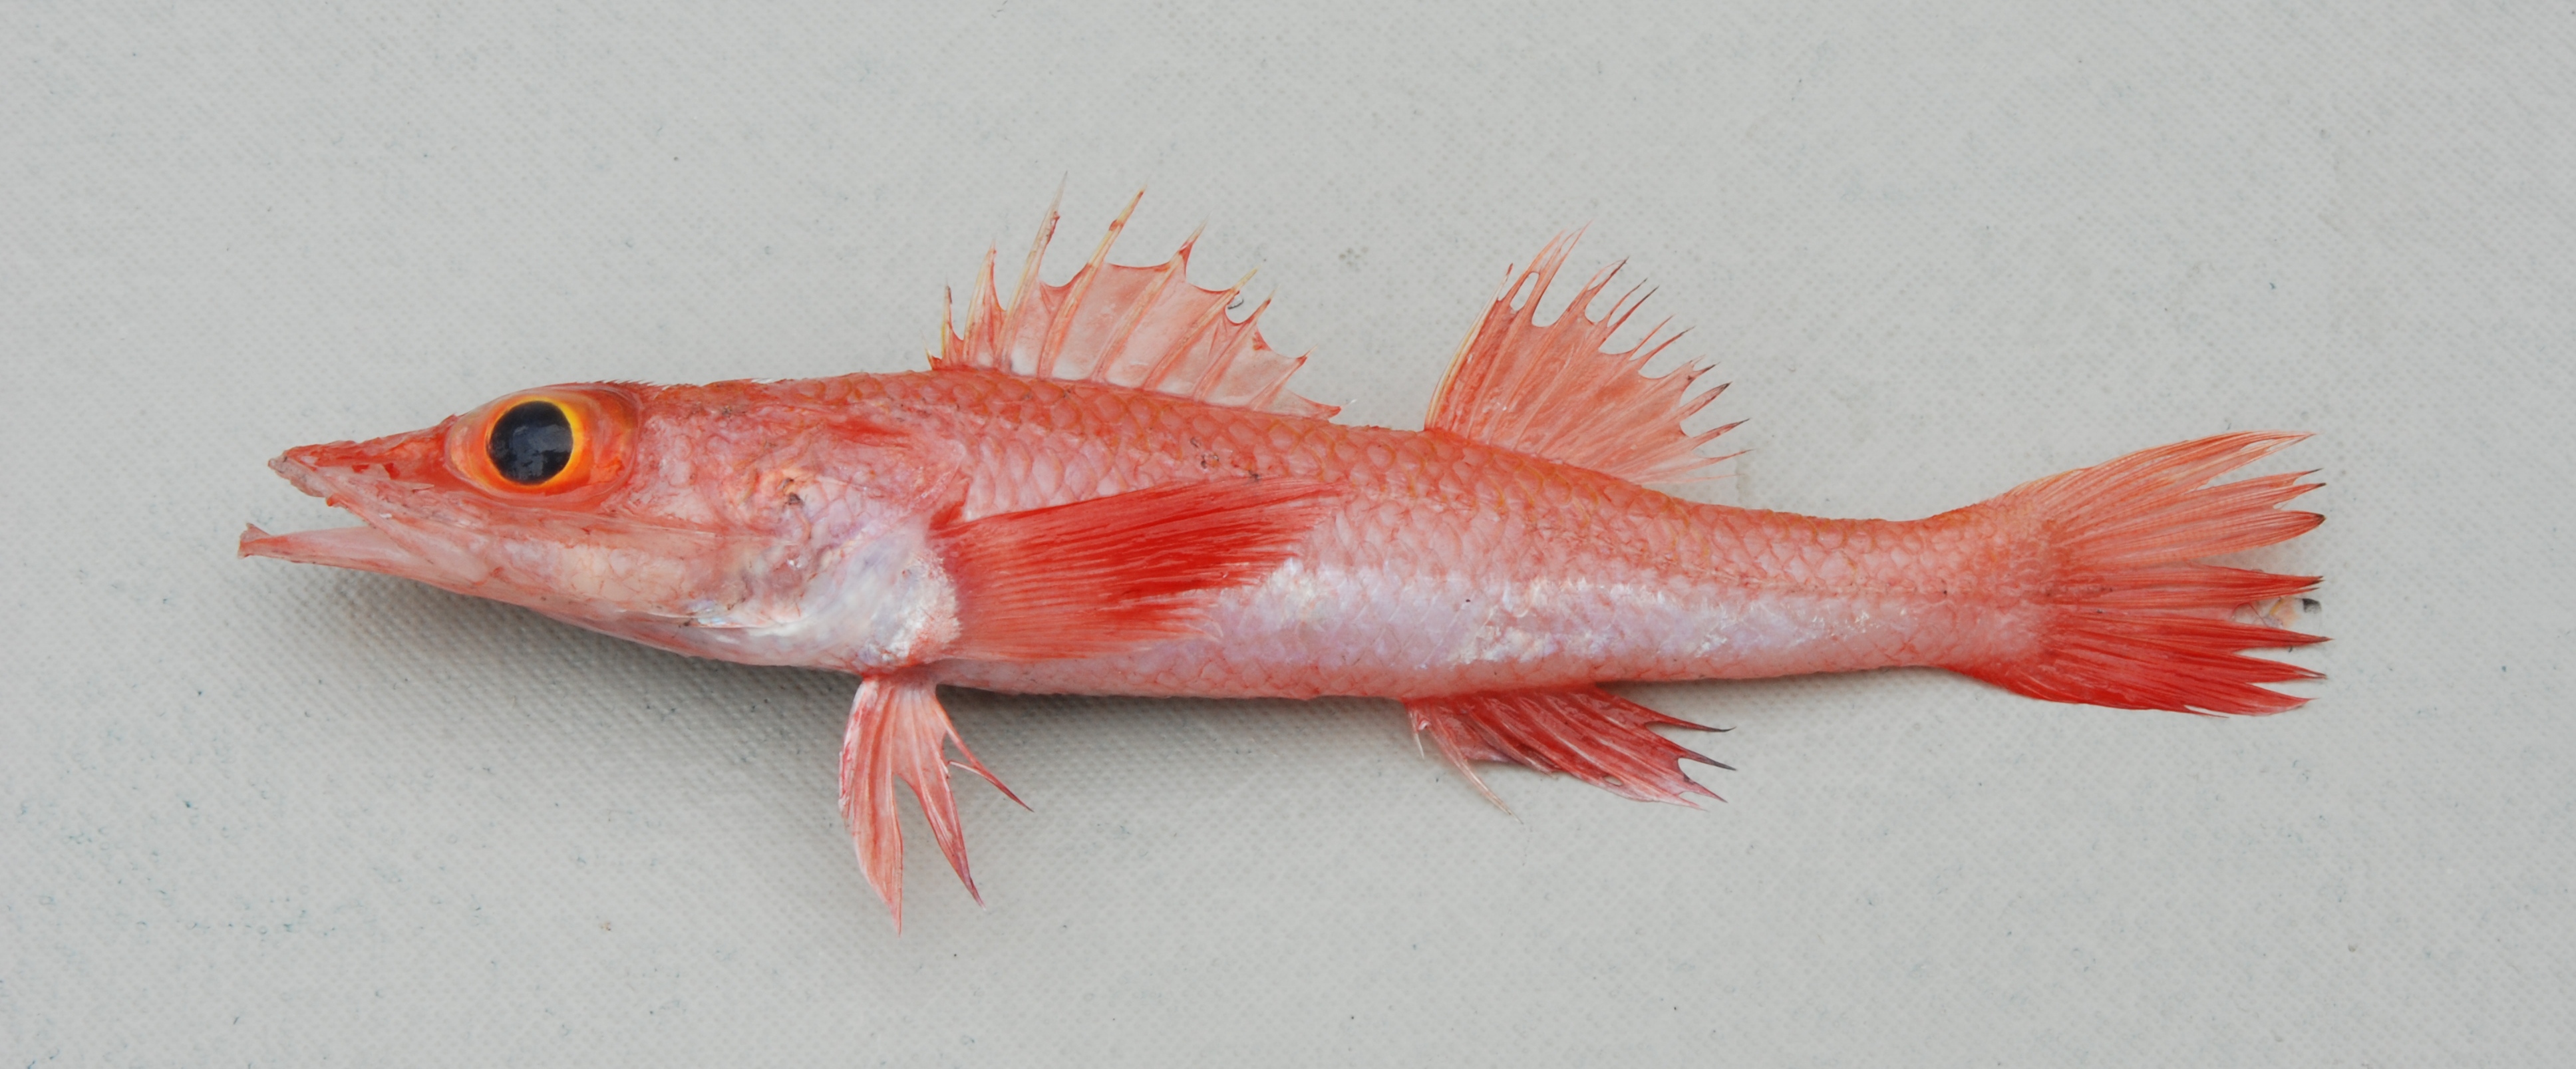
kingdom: Animalia
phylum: Chordata
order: Scorpaeniformes
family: Parabembridae
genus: Parabembras
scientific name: Parabembras robinsoni
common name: African deep-water flathead
